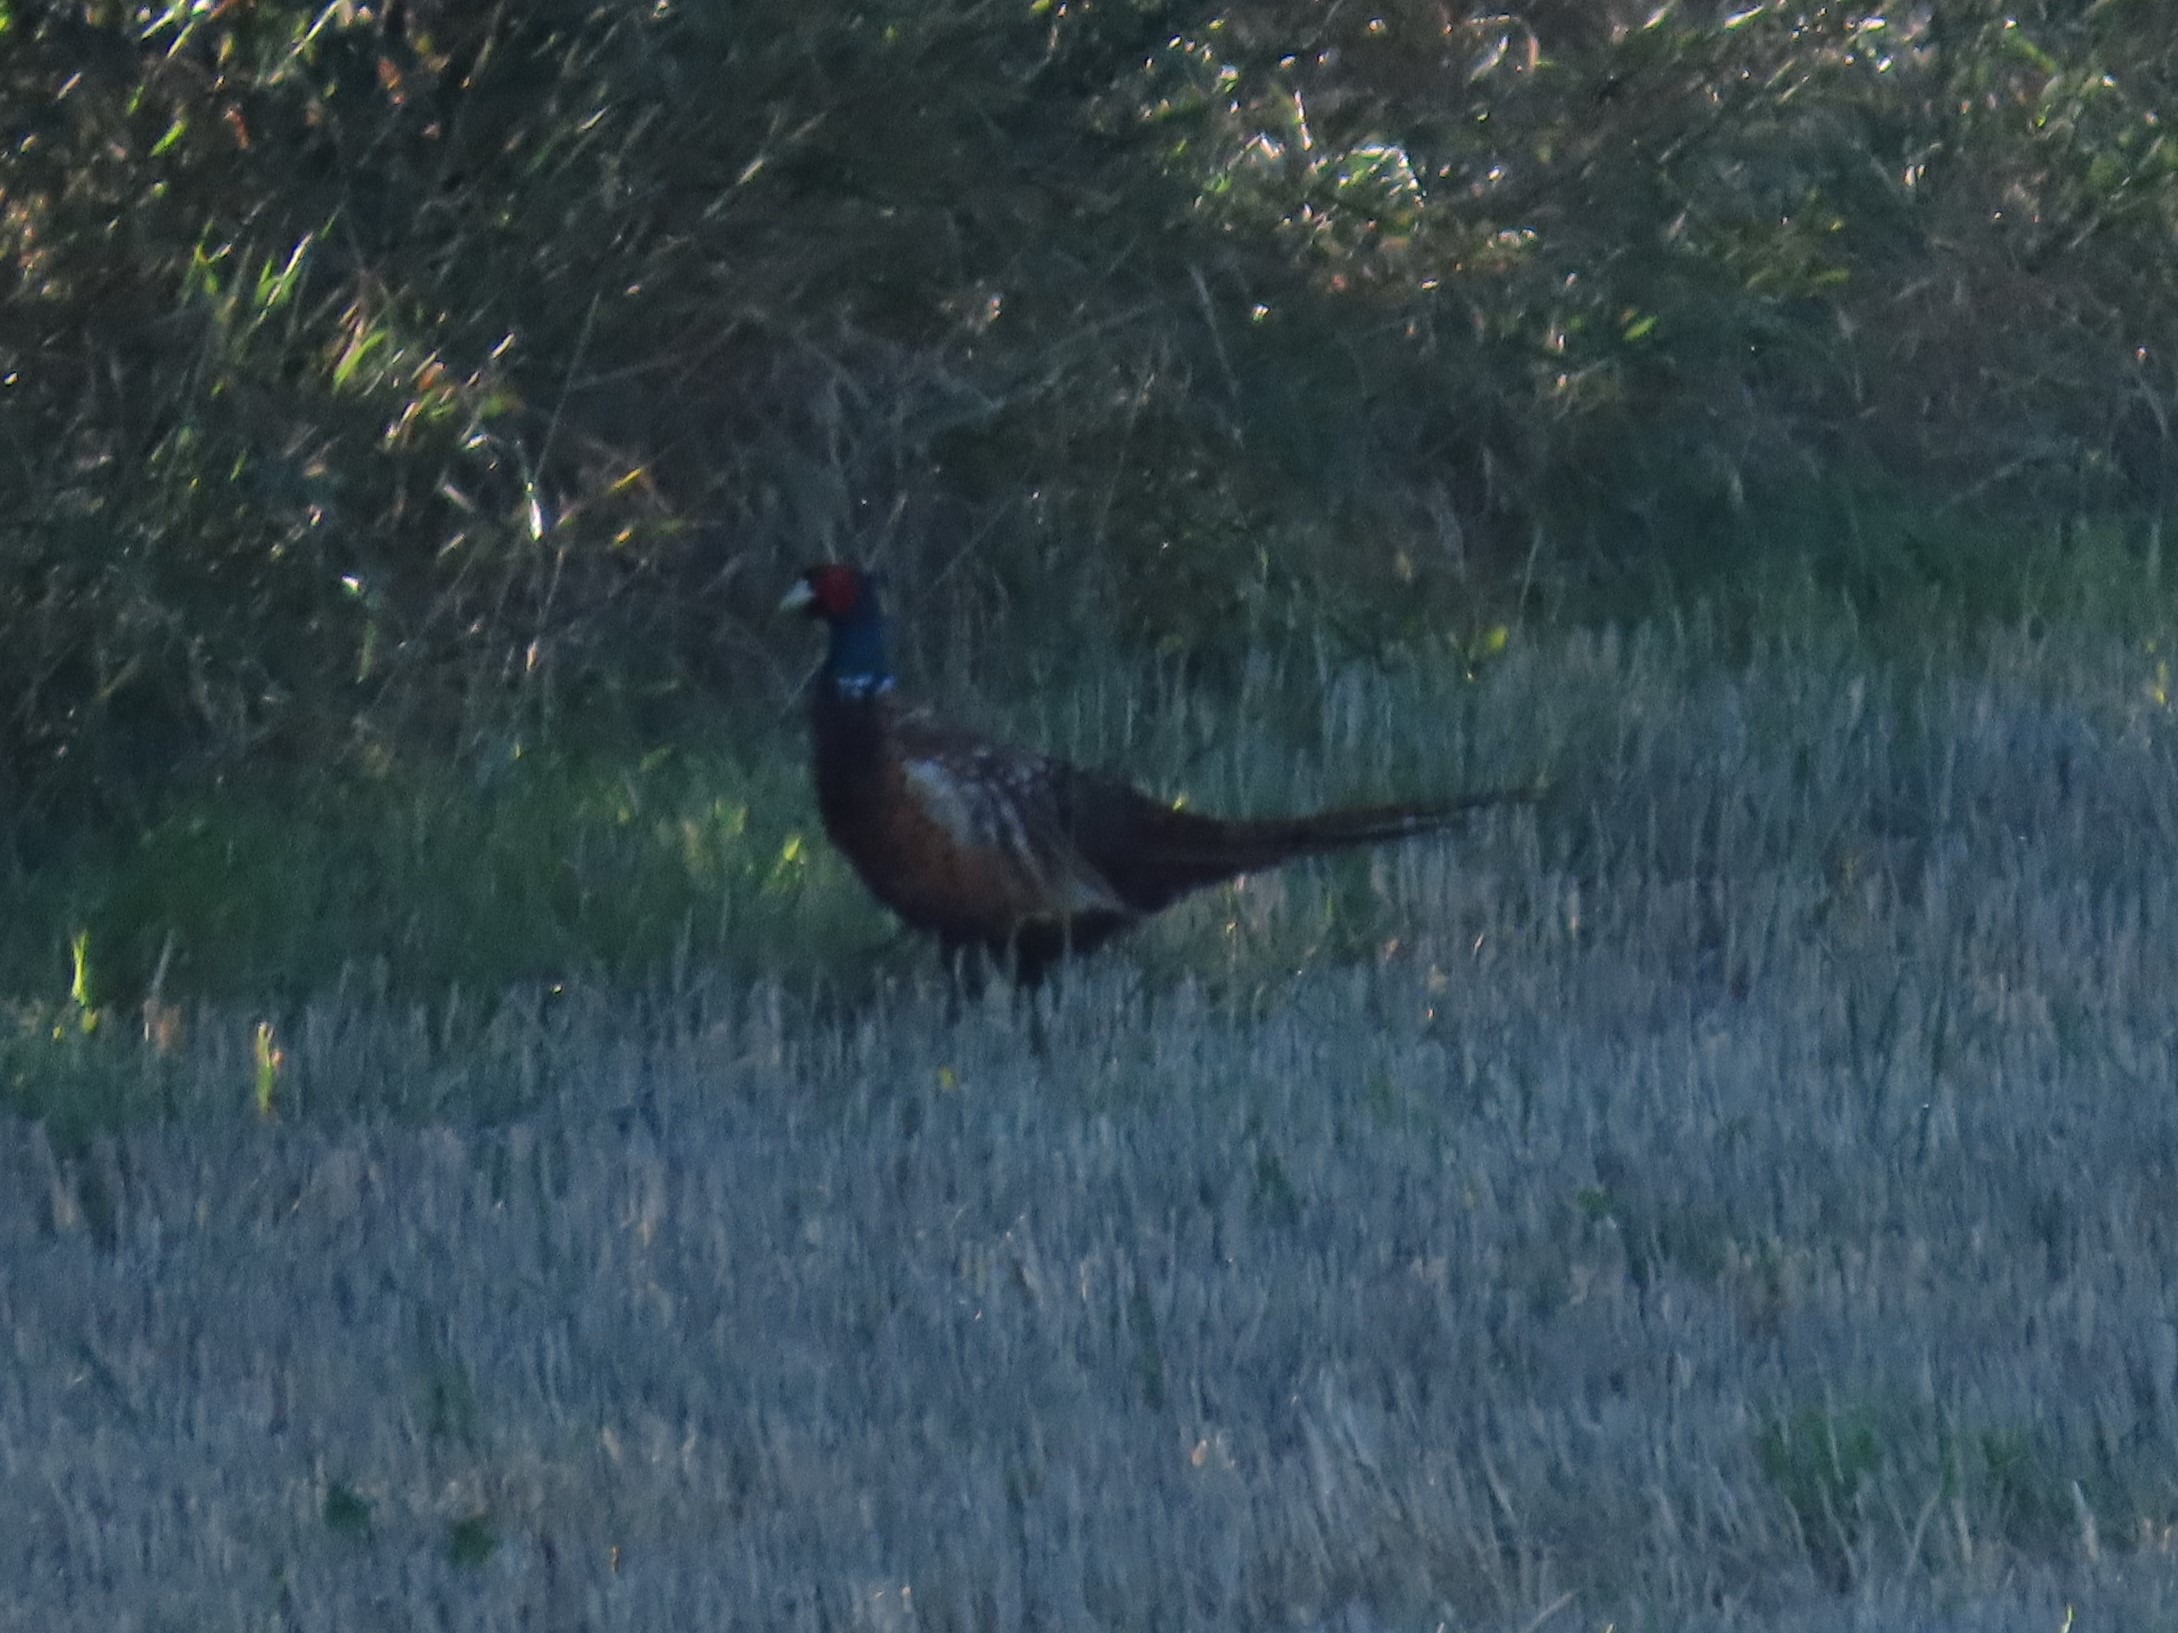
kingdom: Animalia
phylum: Chordata
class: Aves
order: Galliformes
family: Phasianidae
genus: Phasianus
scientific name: Phasianus colchicus
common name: Fasan
